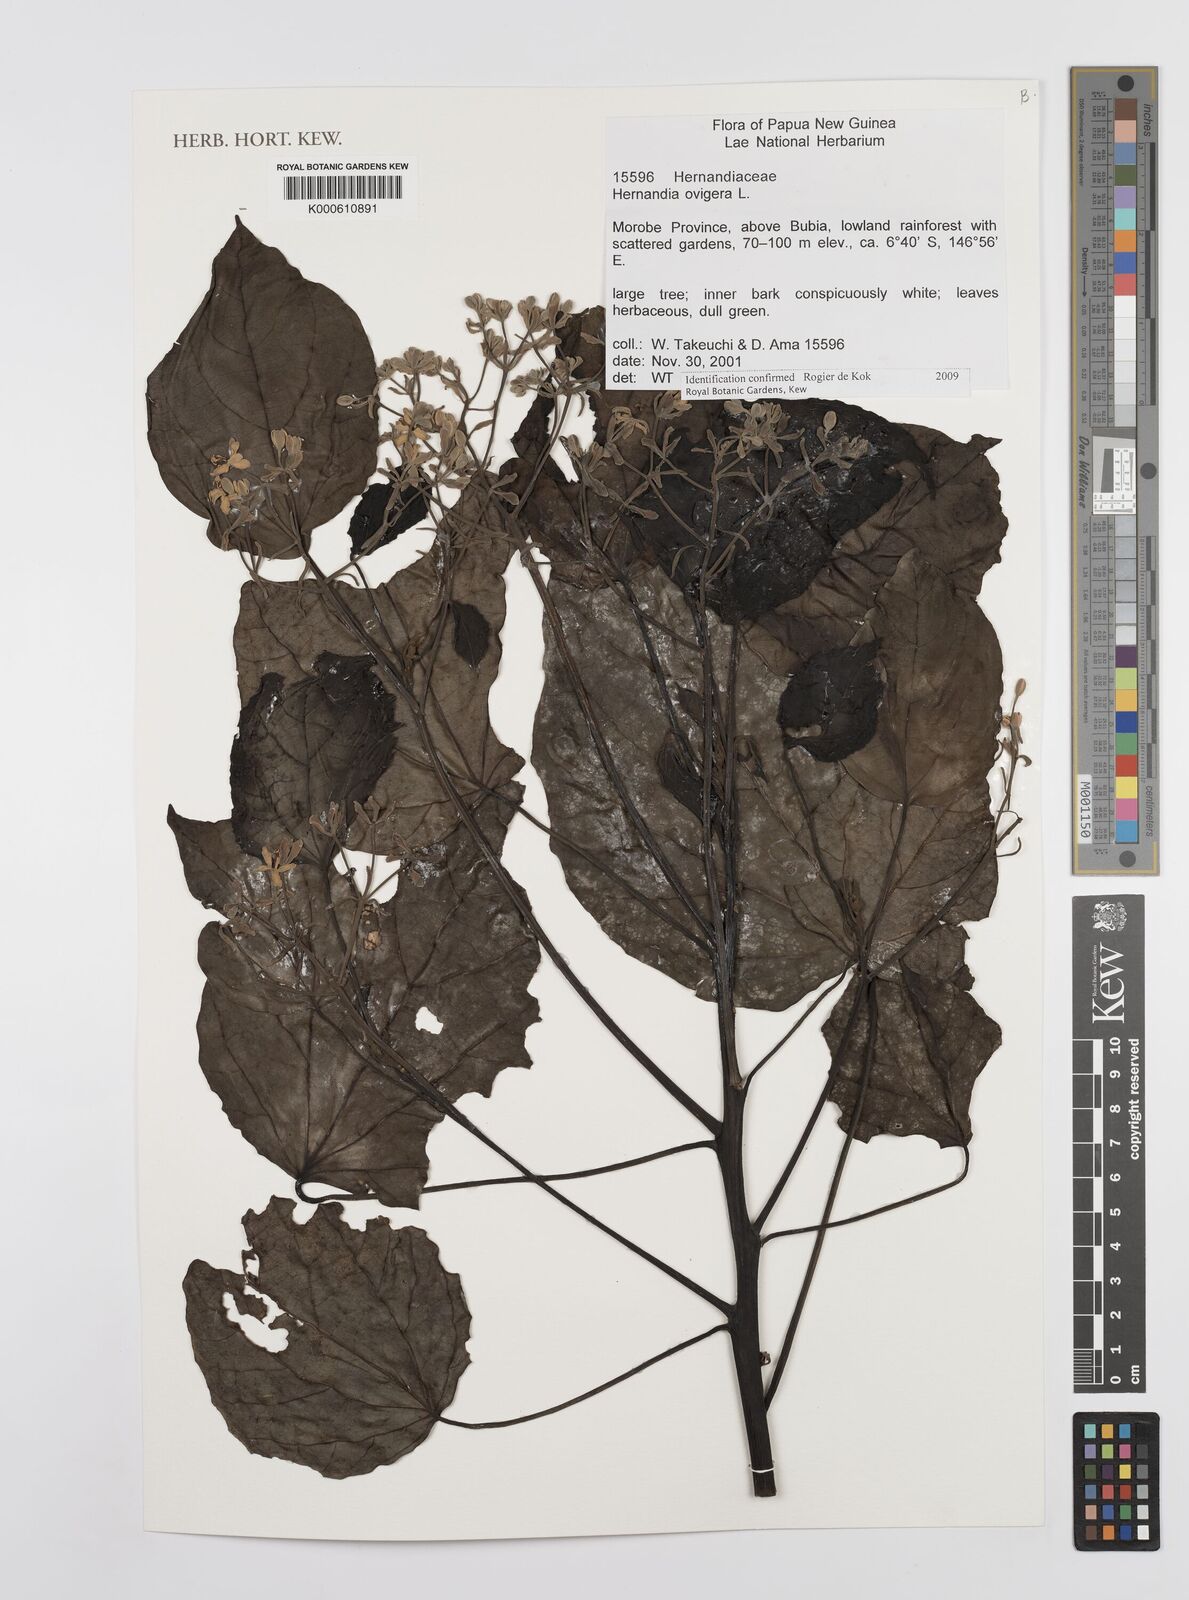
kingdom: Plantae
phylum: Tracheophyta
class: Magnoliopsida
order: Laurales
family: Hernandiaceae
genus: Hernandia
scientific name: Hernandia ovigera
